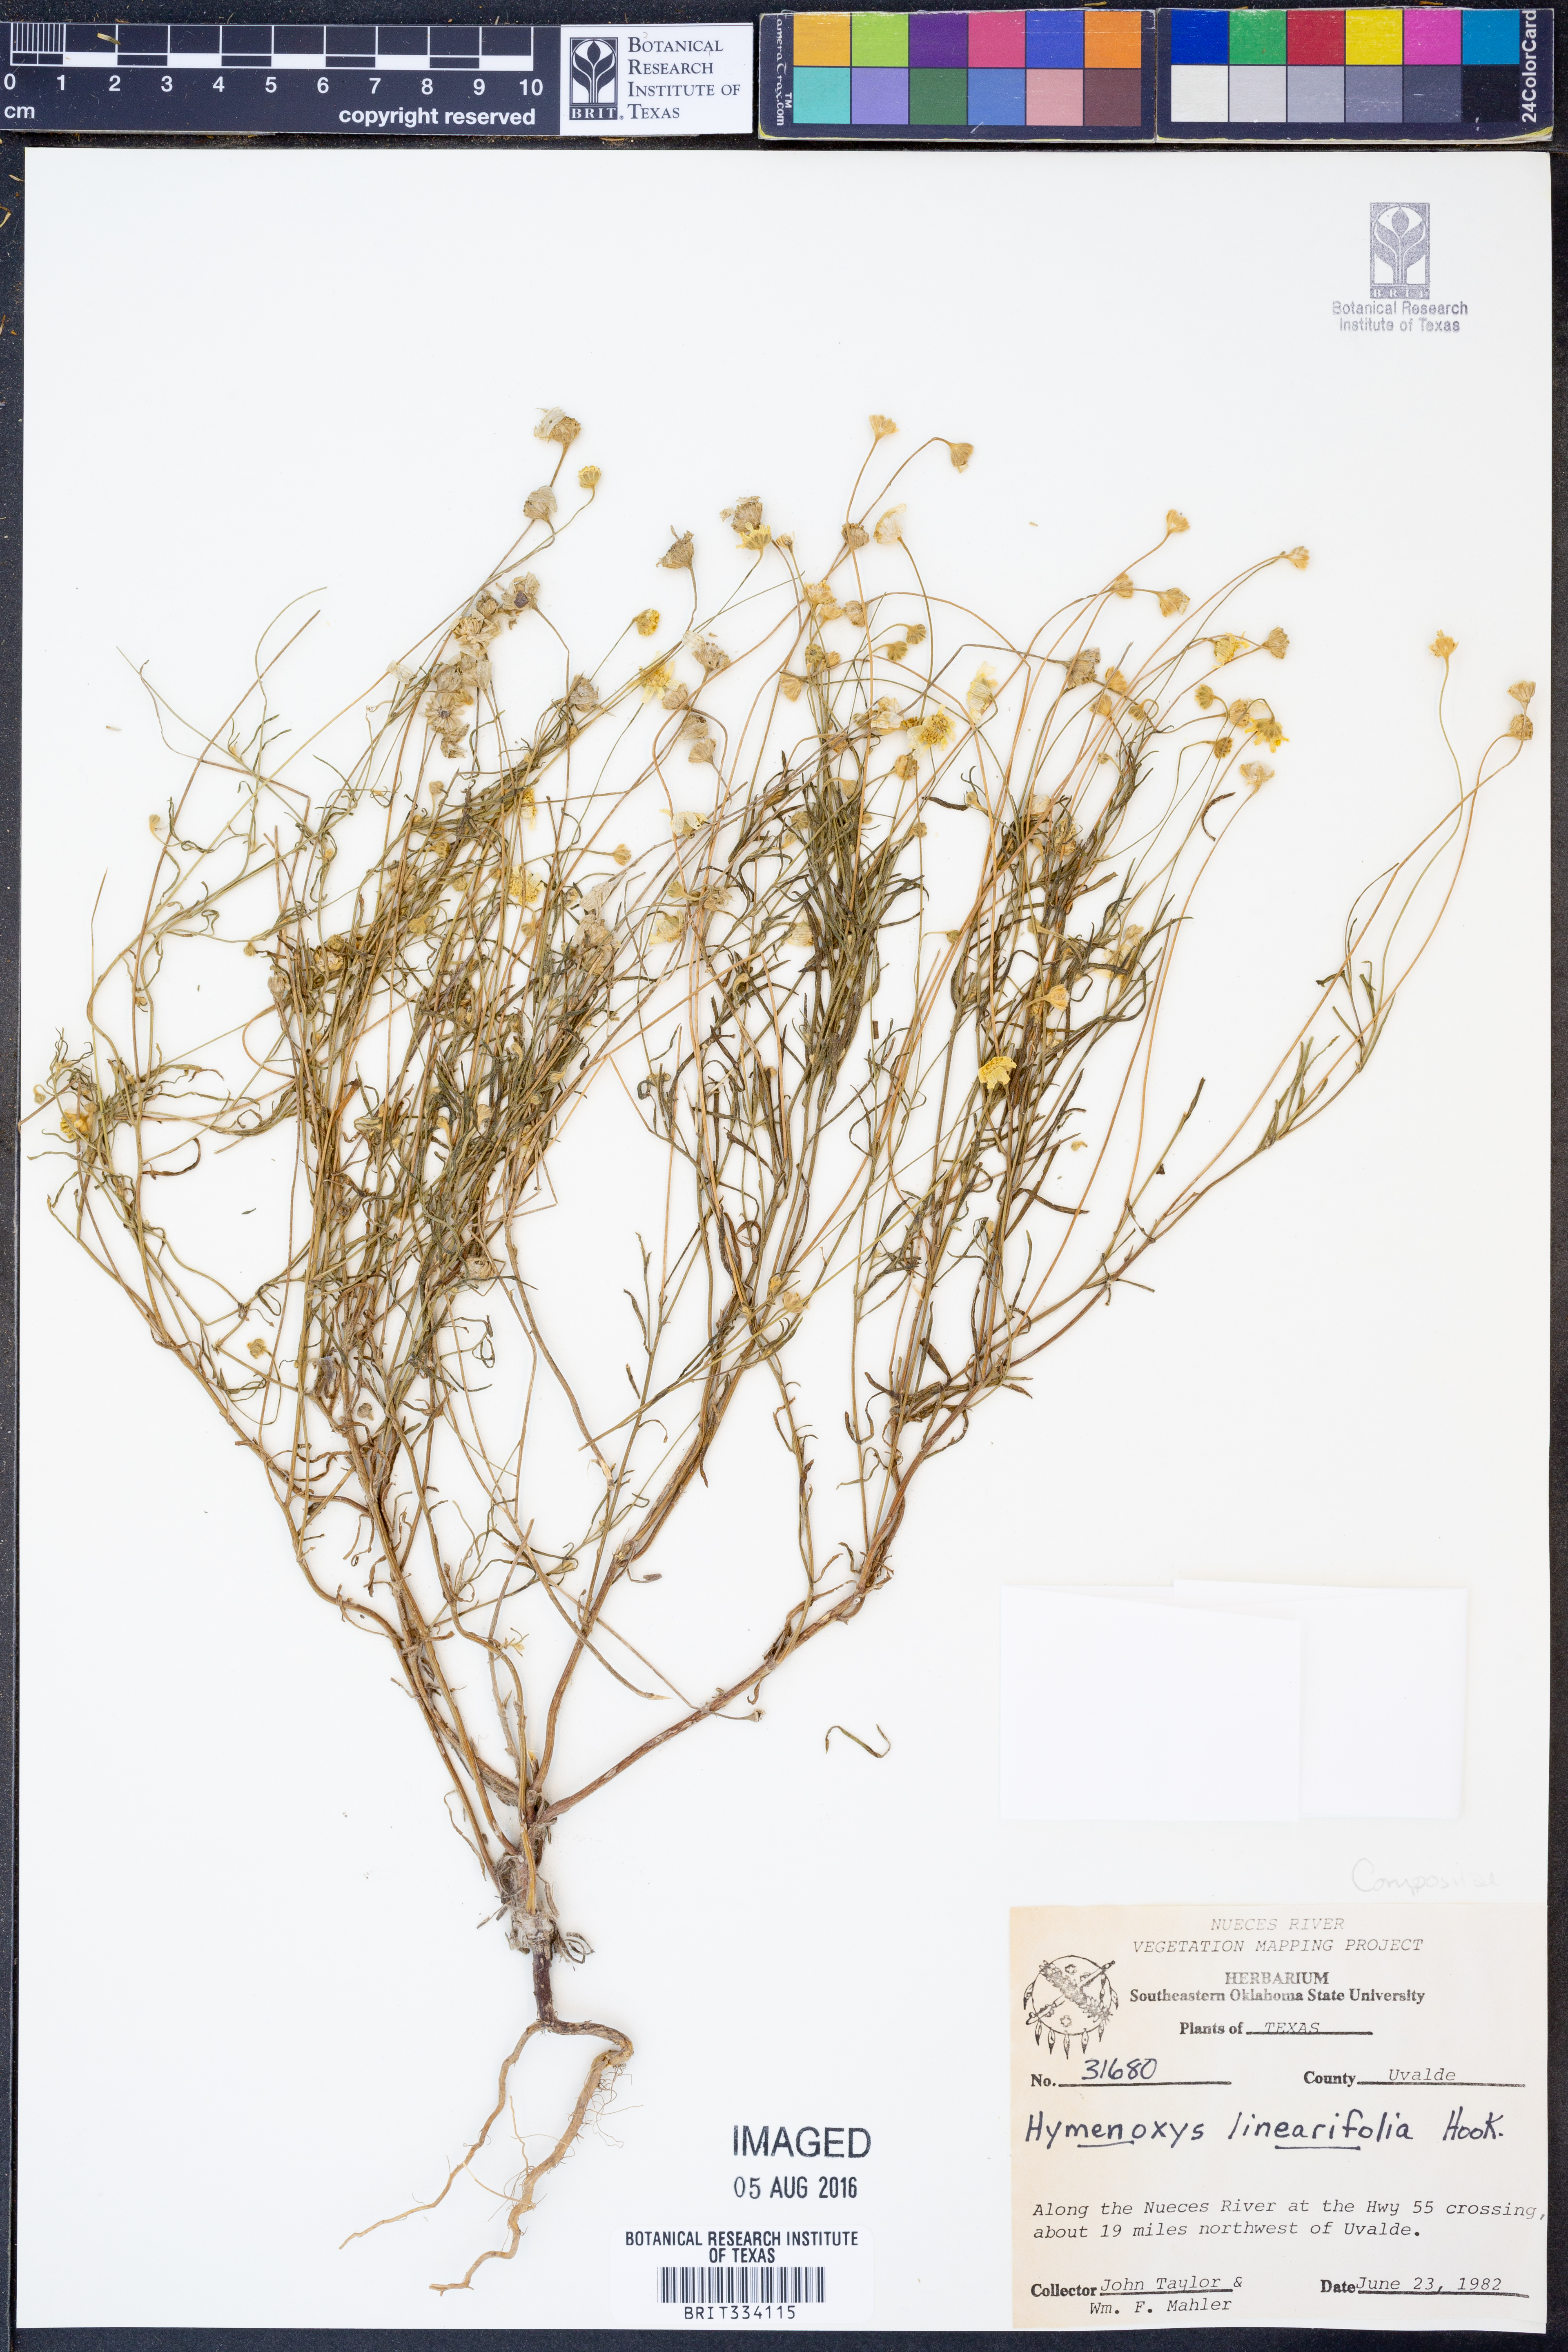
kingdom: Plantae
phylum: Tracheophyta
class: Magnoliopsida
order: Asterales
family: Asteraceae
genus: Tetraneuris
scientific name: Tetraneuris linearifolia
